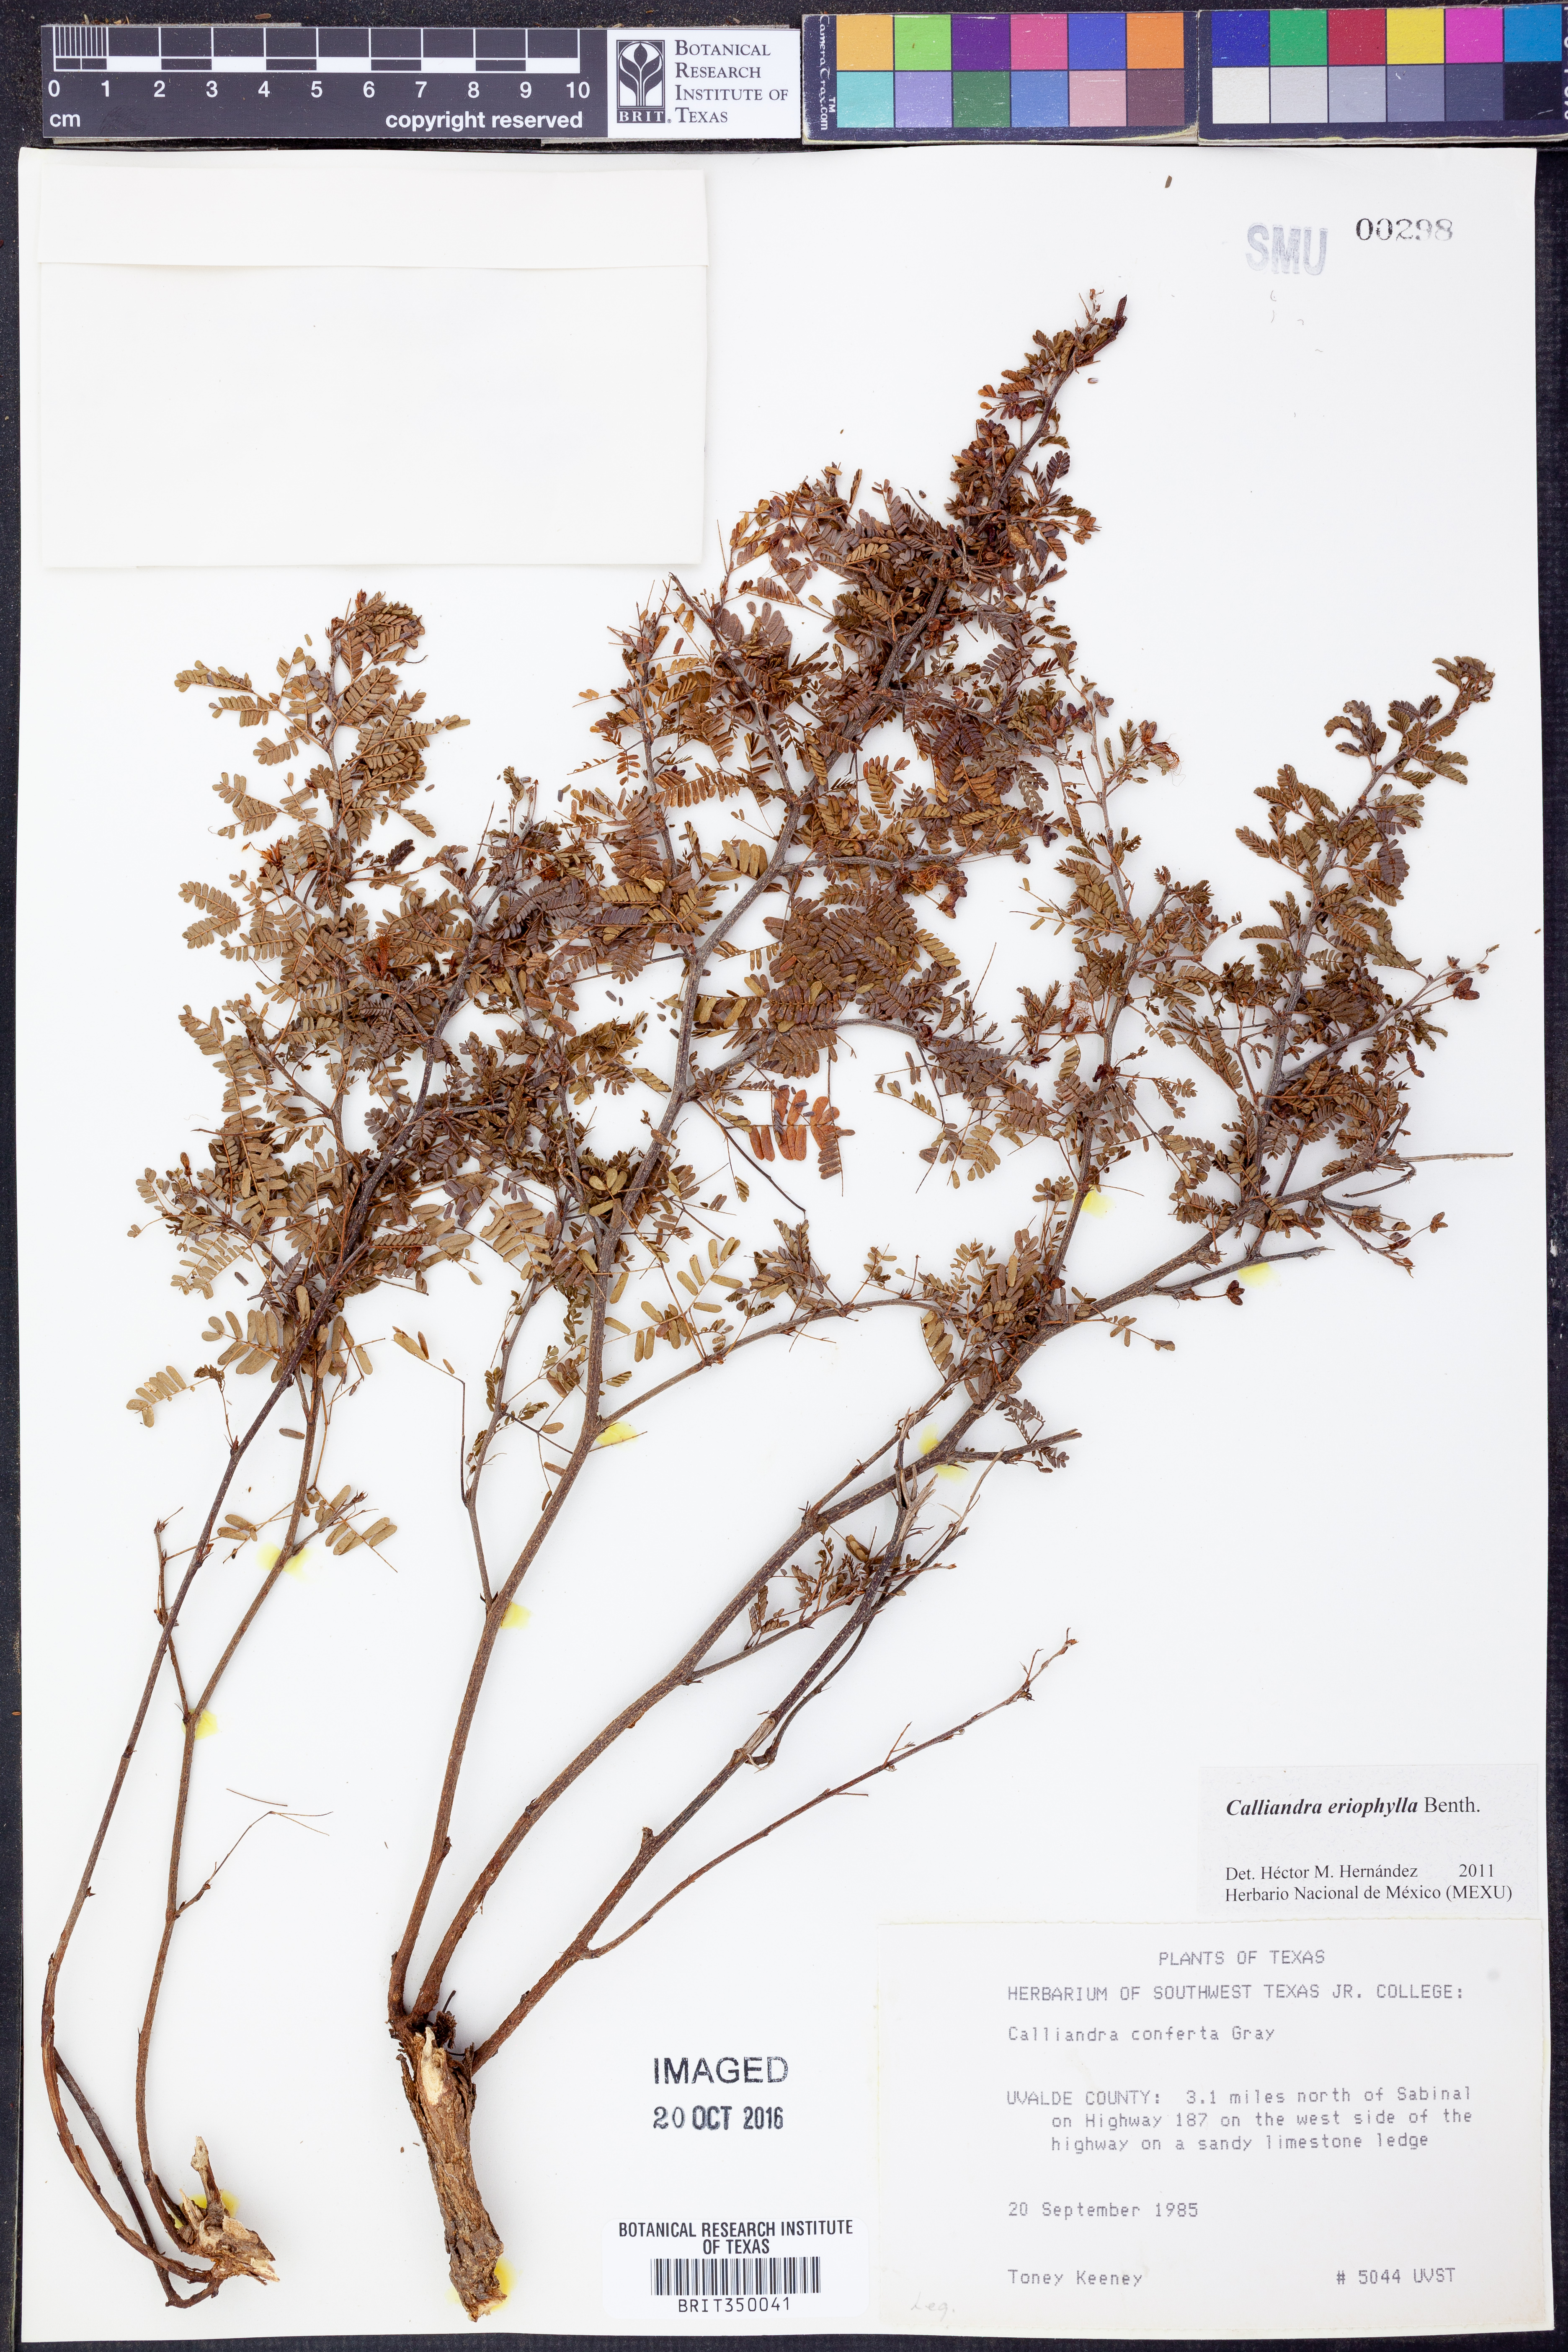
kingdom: Plantae
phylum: Tracheophyta
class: Magnoliopsida
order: Fabales
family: Fabaceae
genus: Calliandra
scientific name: Calliandra eriophylla
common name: Fairy-duster
